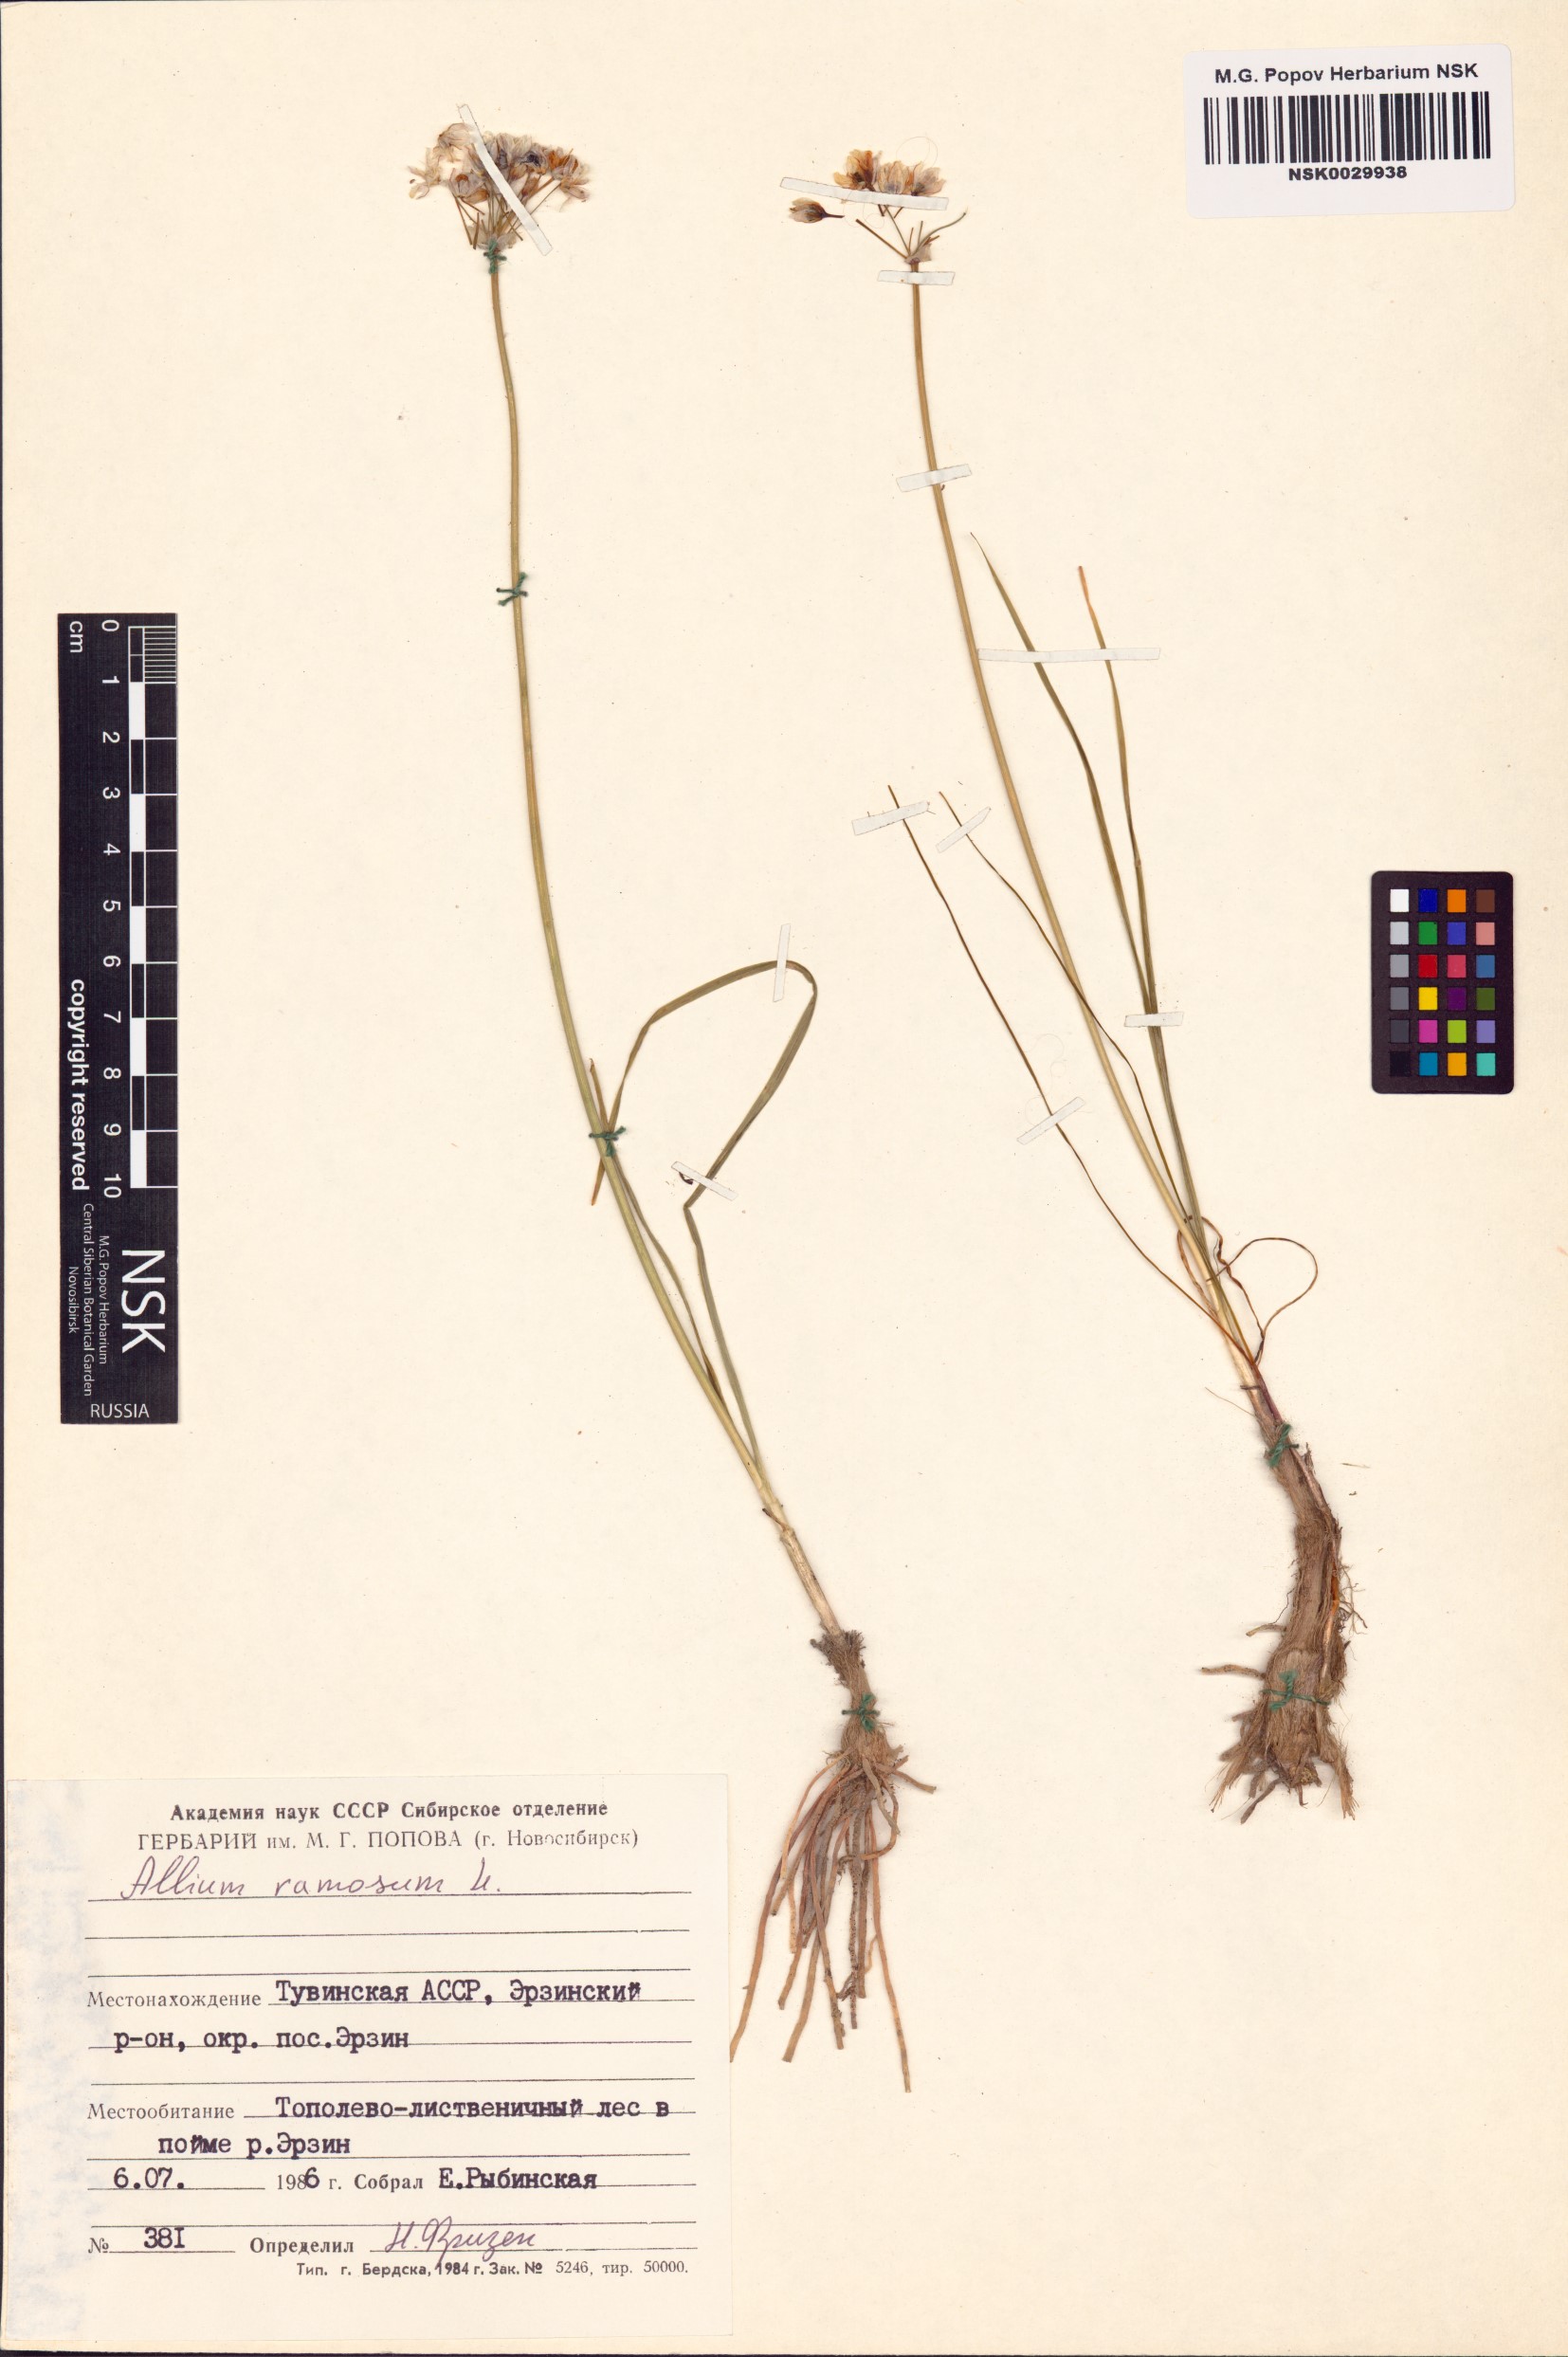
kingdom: Plantae
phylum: Tracheophyta
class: Liliopsida
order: Asparagales
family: Amaryllidaceae
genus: Allium
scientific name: Allium ramosum
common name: Fragrant garlic
